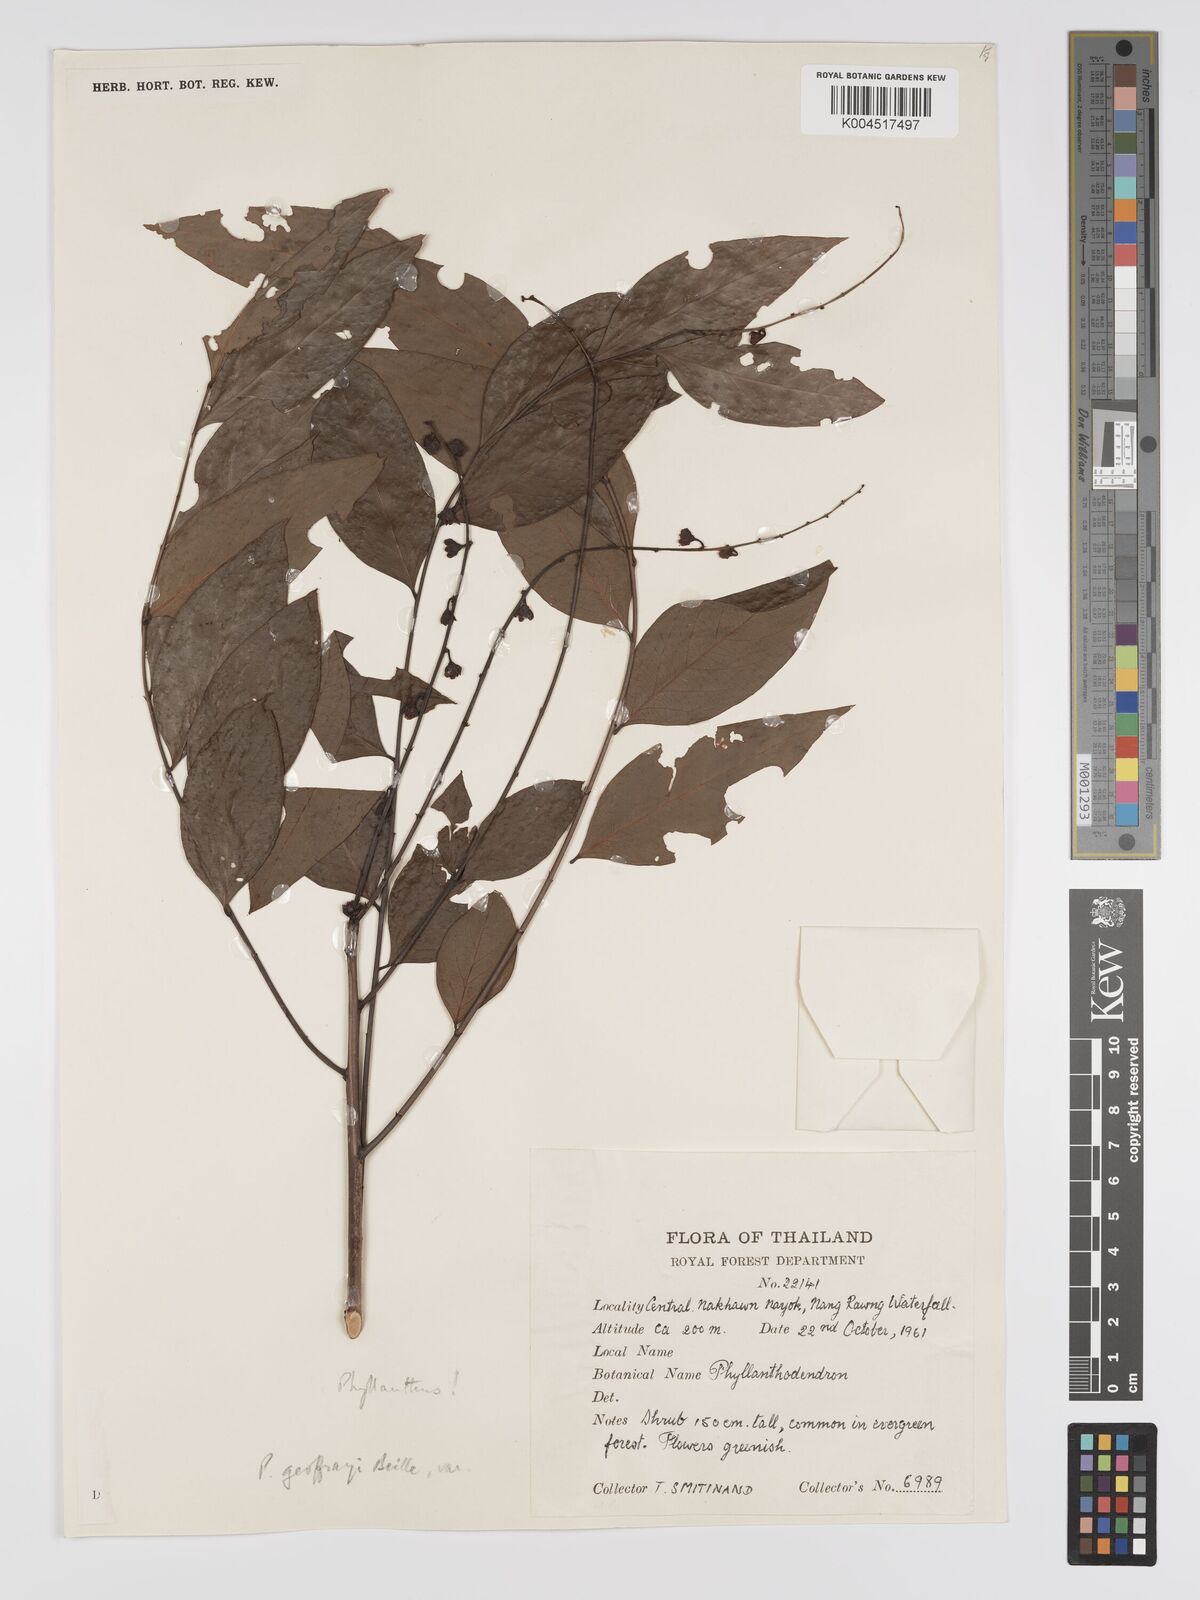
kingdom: Plantae
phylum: Tracheophyta
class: Magnoliopsida
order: Malpighiales
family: Phyllanthaceae
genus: Phyllanthus
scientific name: Phyllanthus geoffrayi
